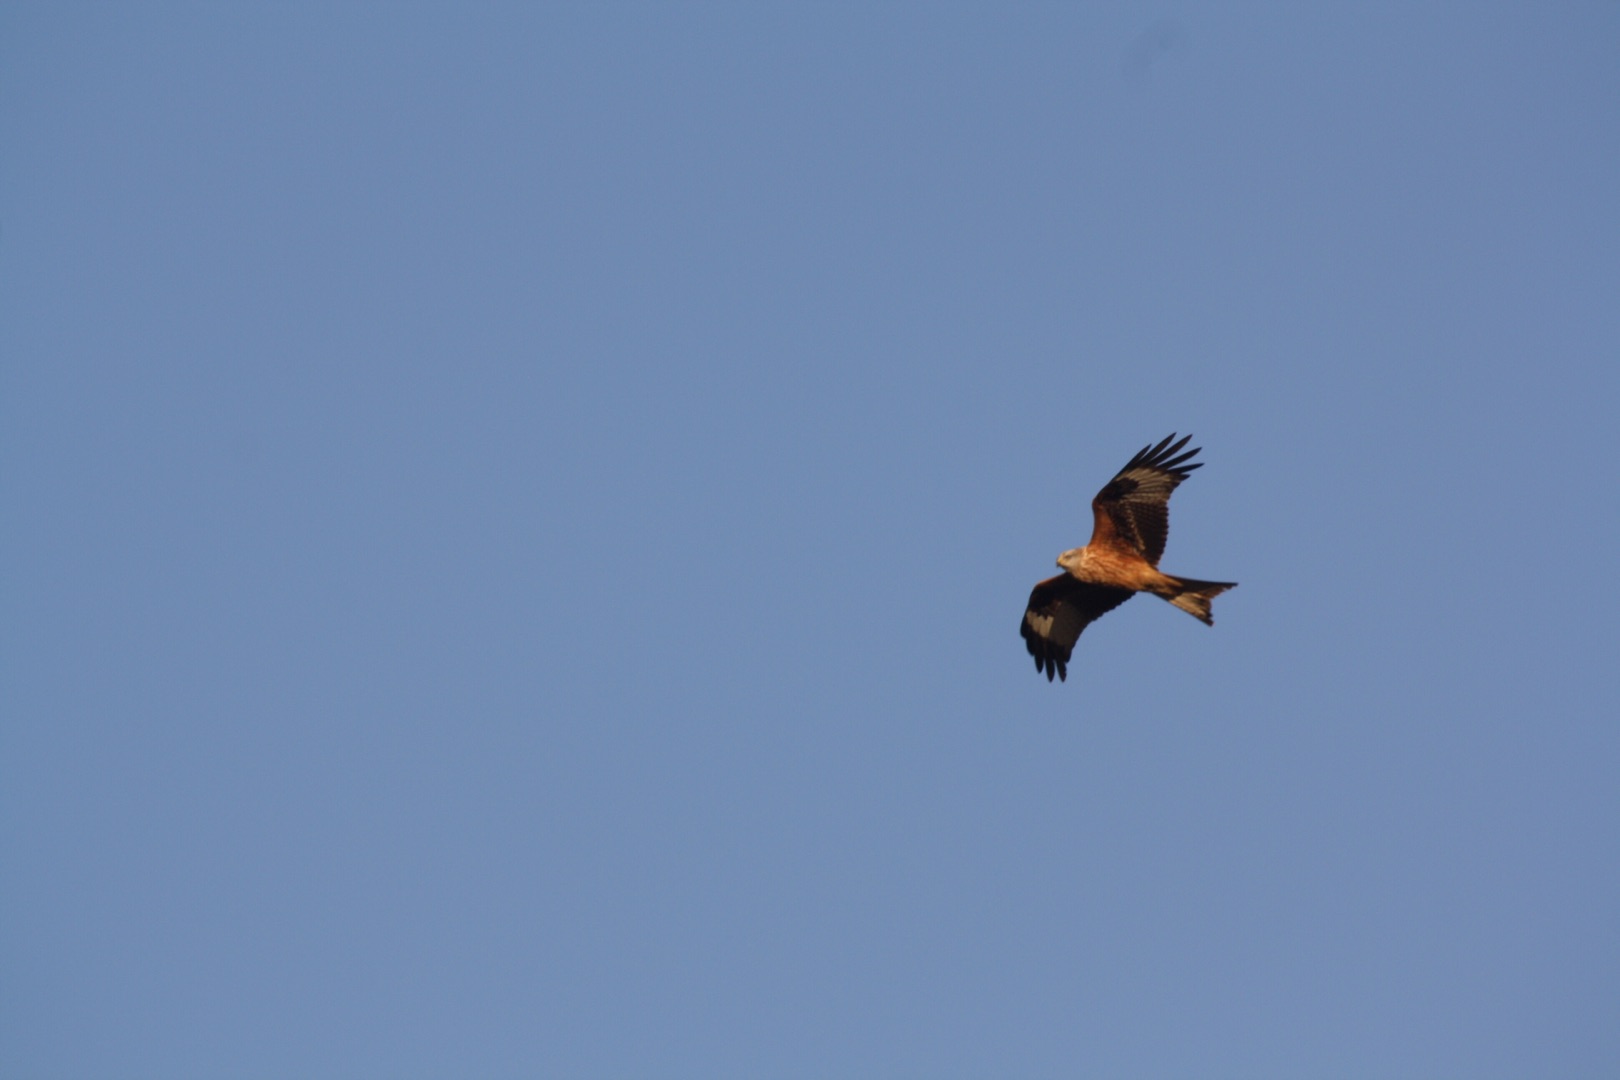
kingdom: Animalia
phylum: Chordata
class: Aves
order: Accipitriformes
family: Accipitridae
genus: Milvus
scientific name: Milvus milvus
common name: Rød glente
